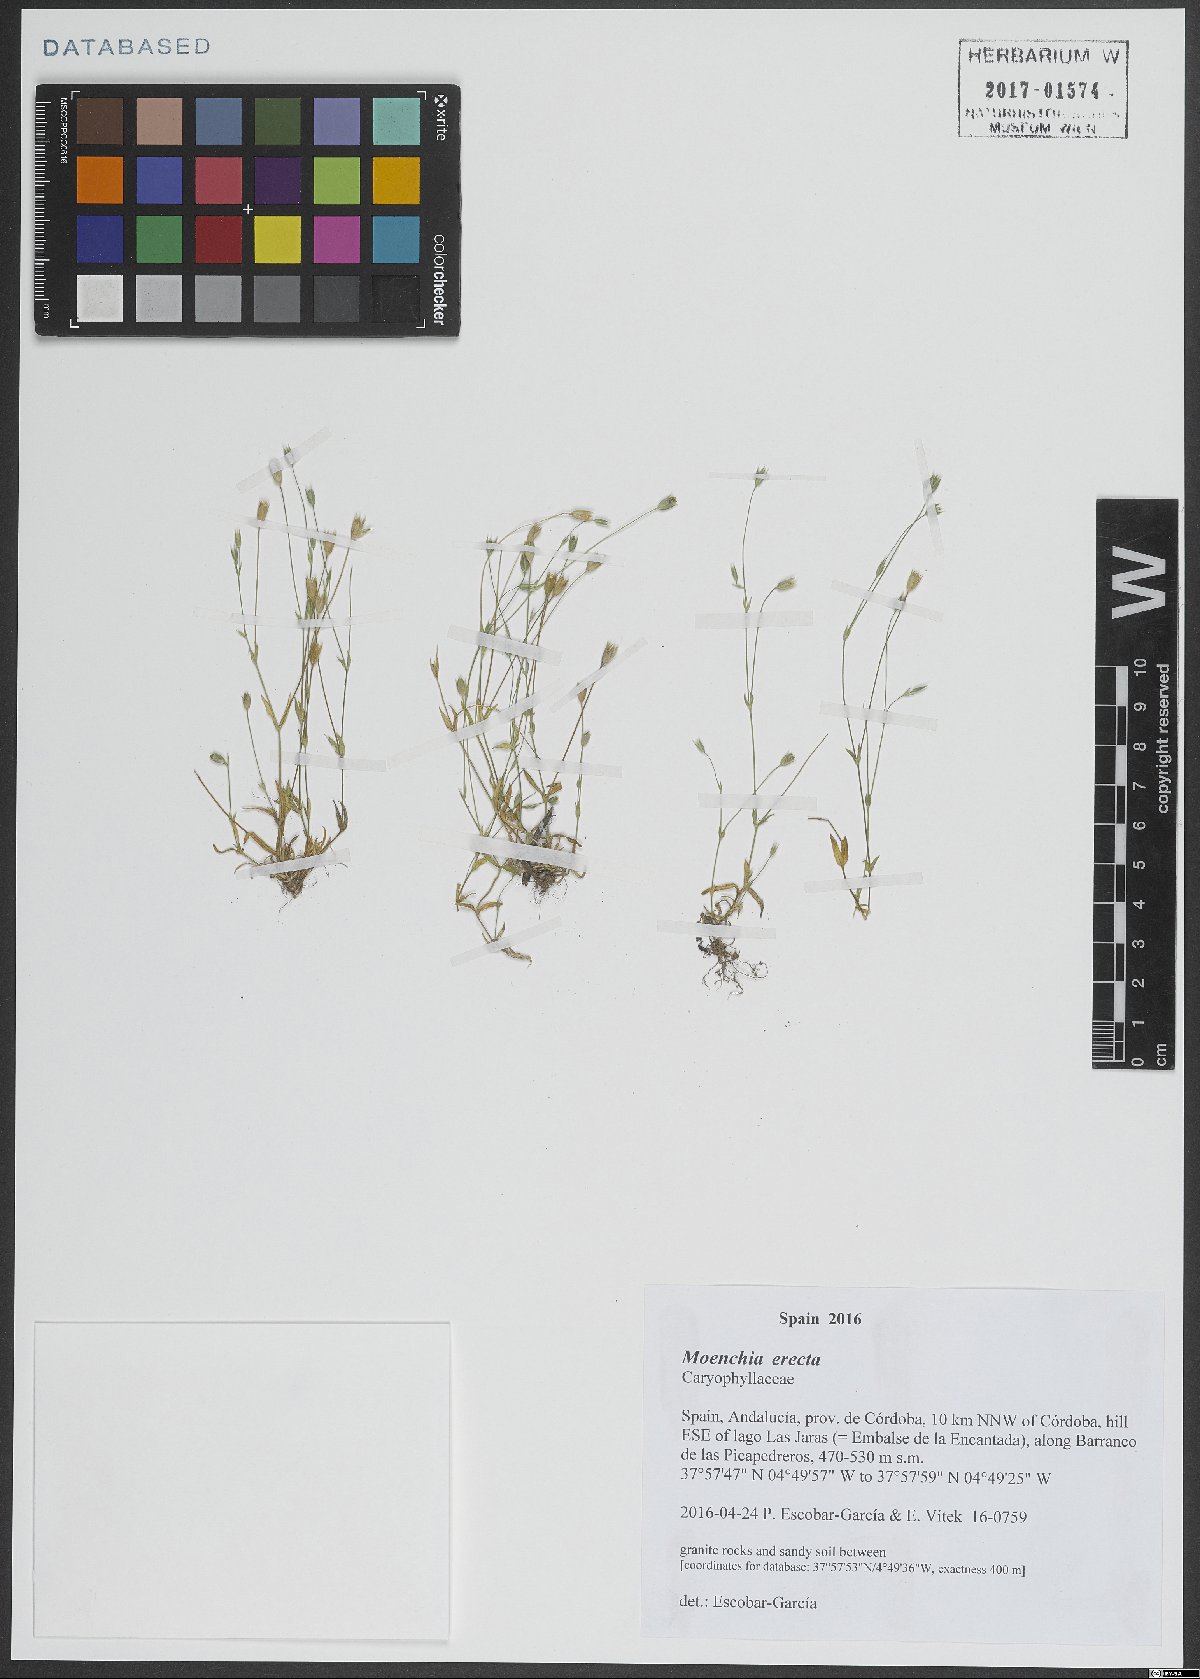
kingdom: Plantae
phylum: Tracheophyta
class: Magnoliopsida
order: Caryophyllales
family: Caryophyllaceae
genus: Moenchia
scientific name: Moenchia erecta
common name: Upright chickweed
